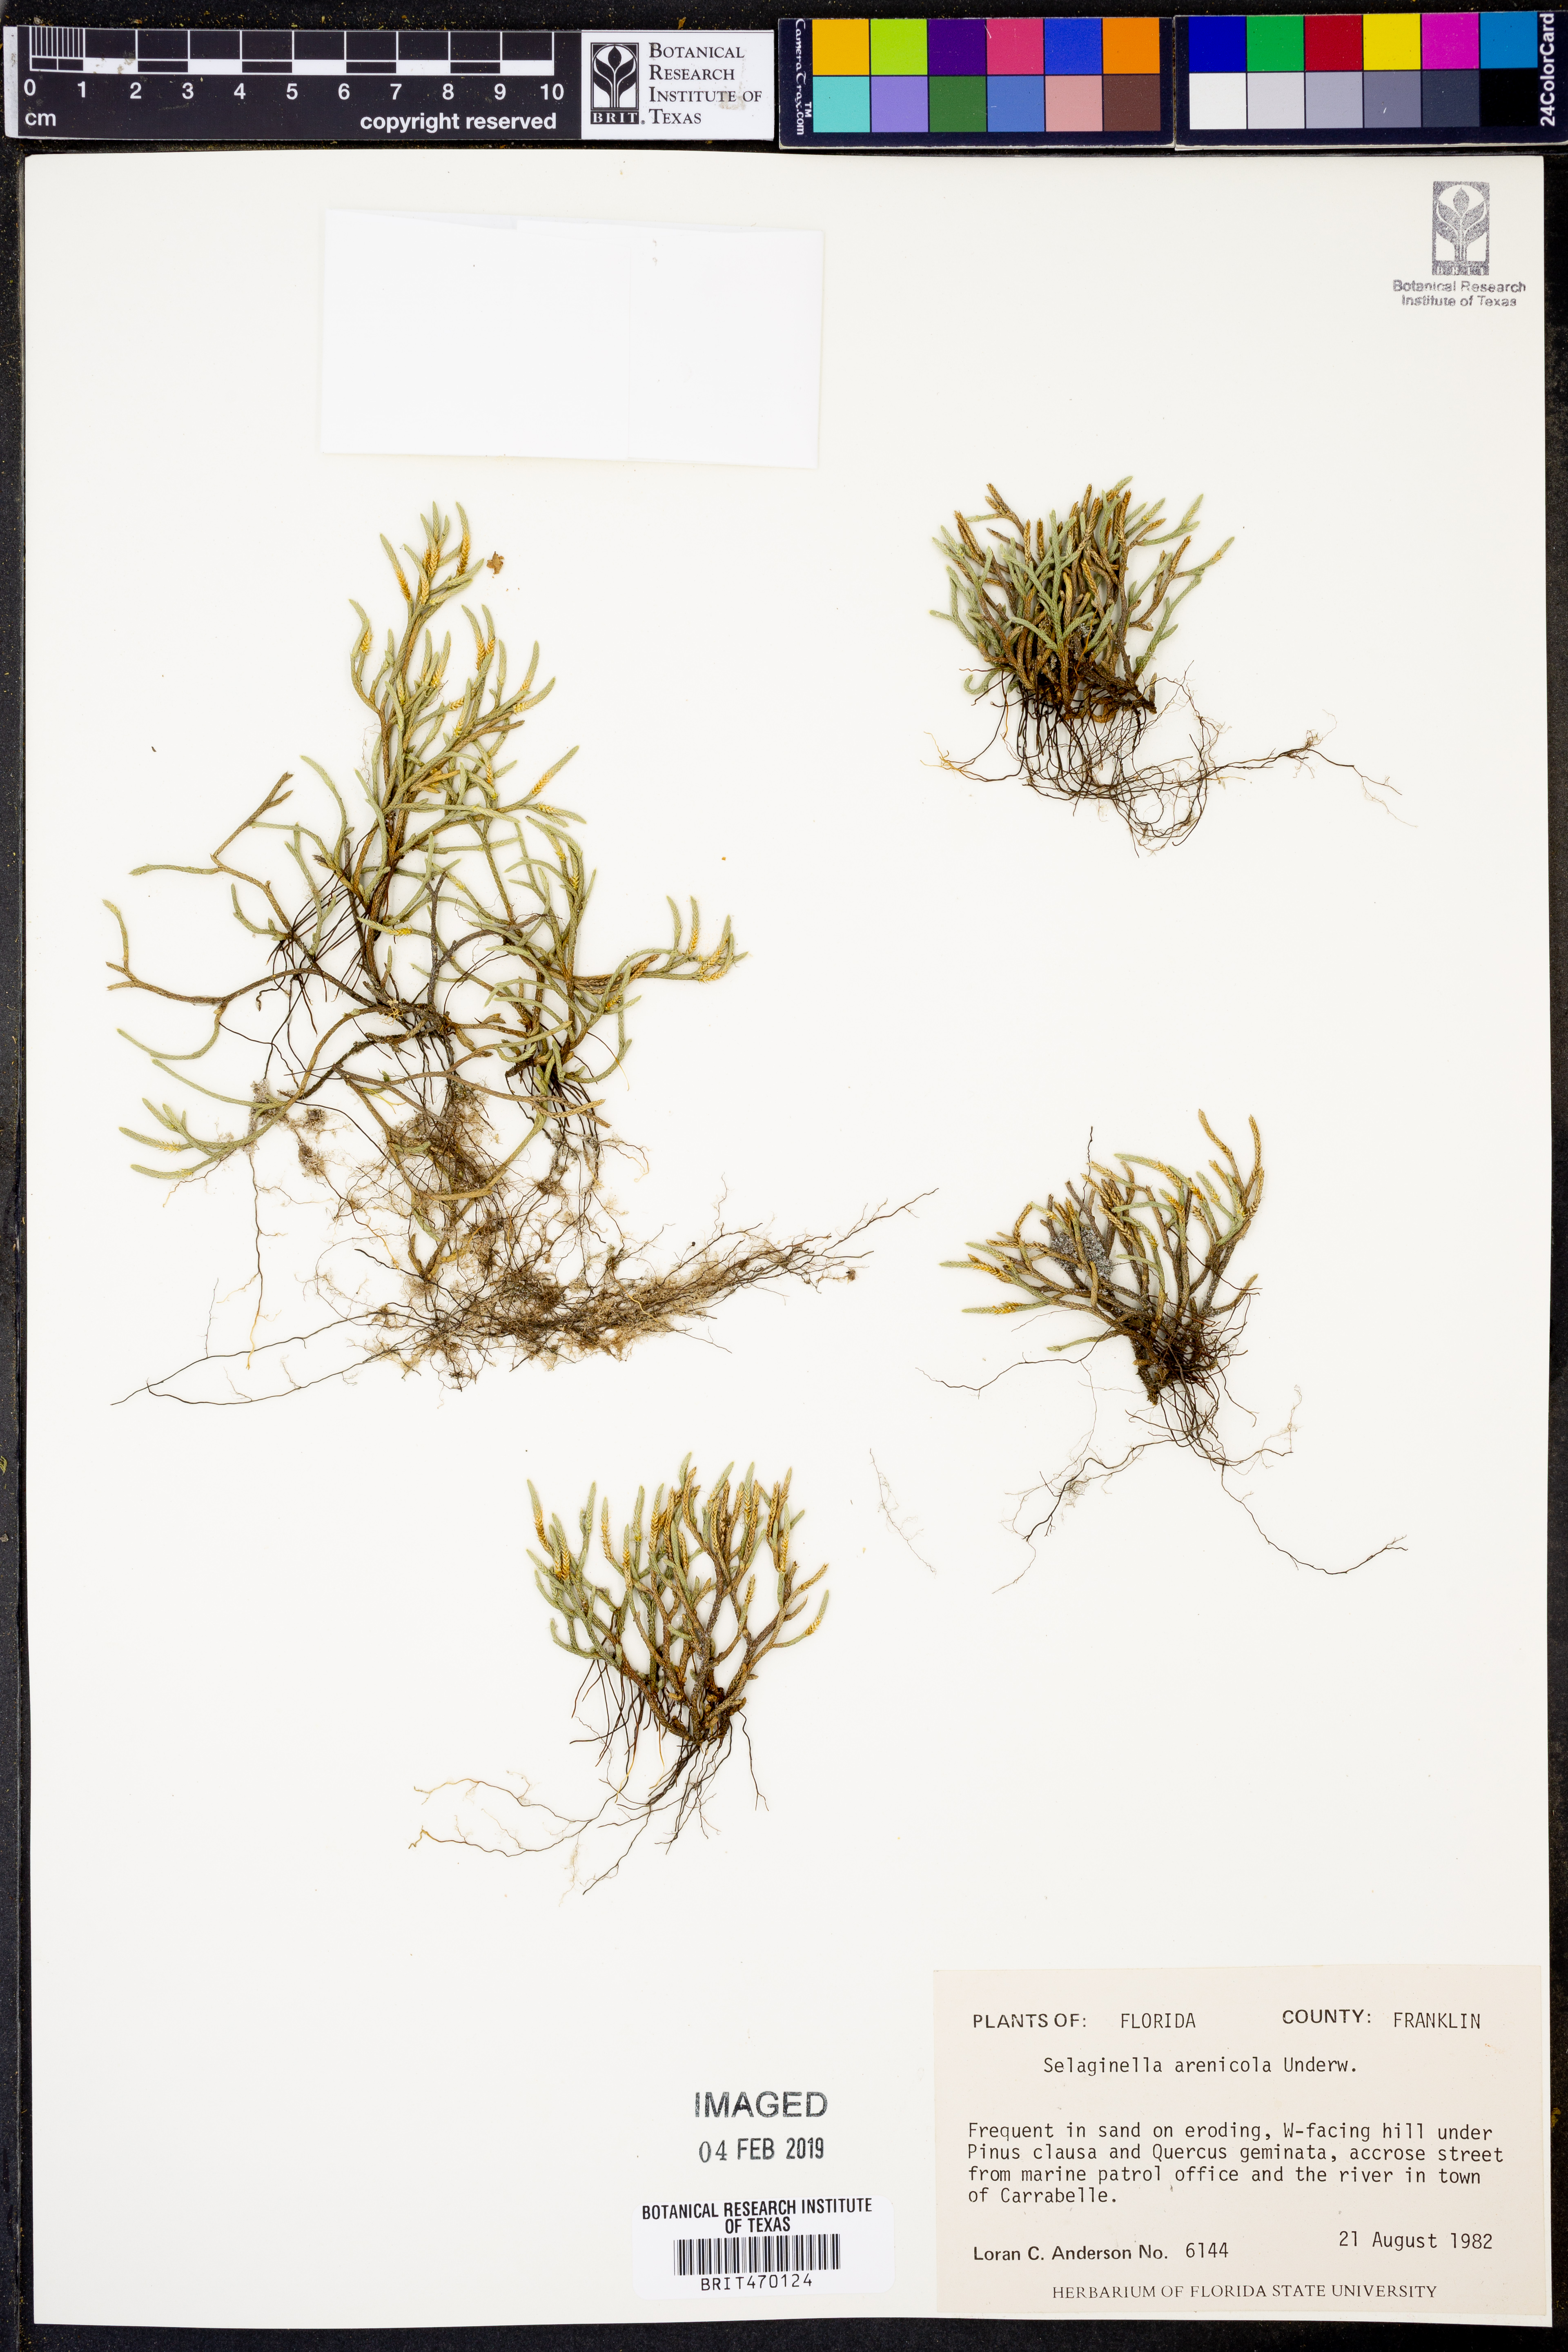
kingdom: Plantae
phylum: Tracheophyta
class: Lycopodiopsida
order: Selaginellales
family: Selaginellaceae
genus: Selaginella
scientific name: Selaginella arenicola
